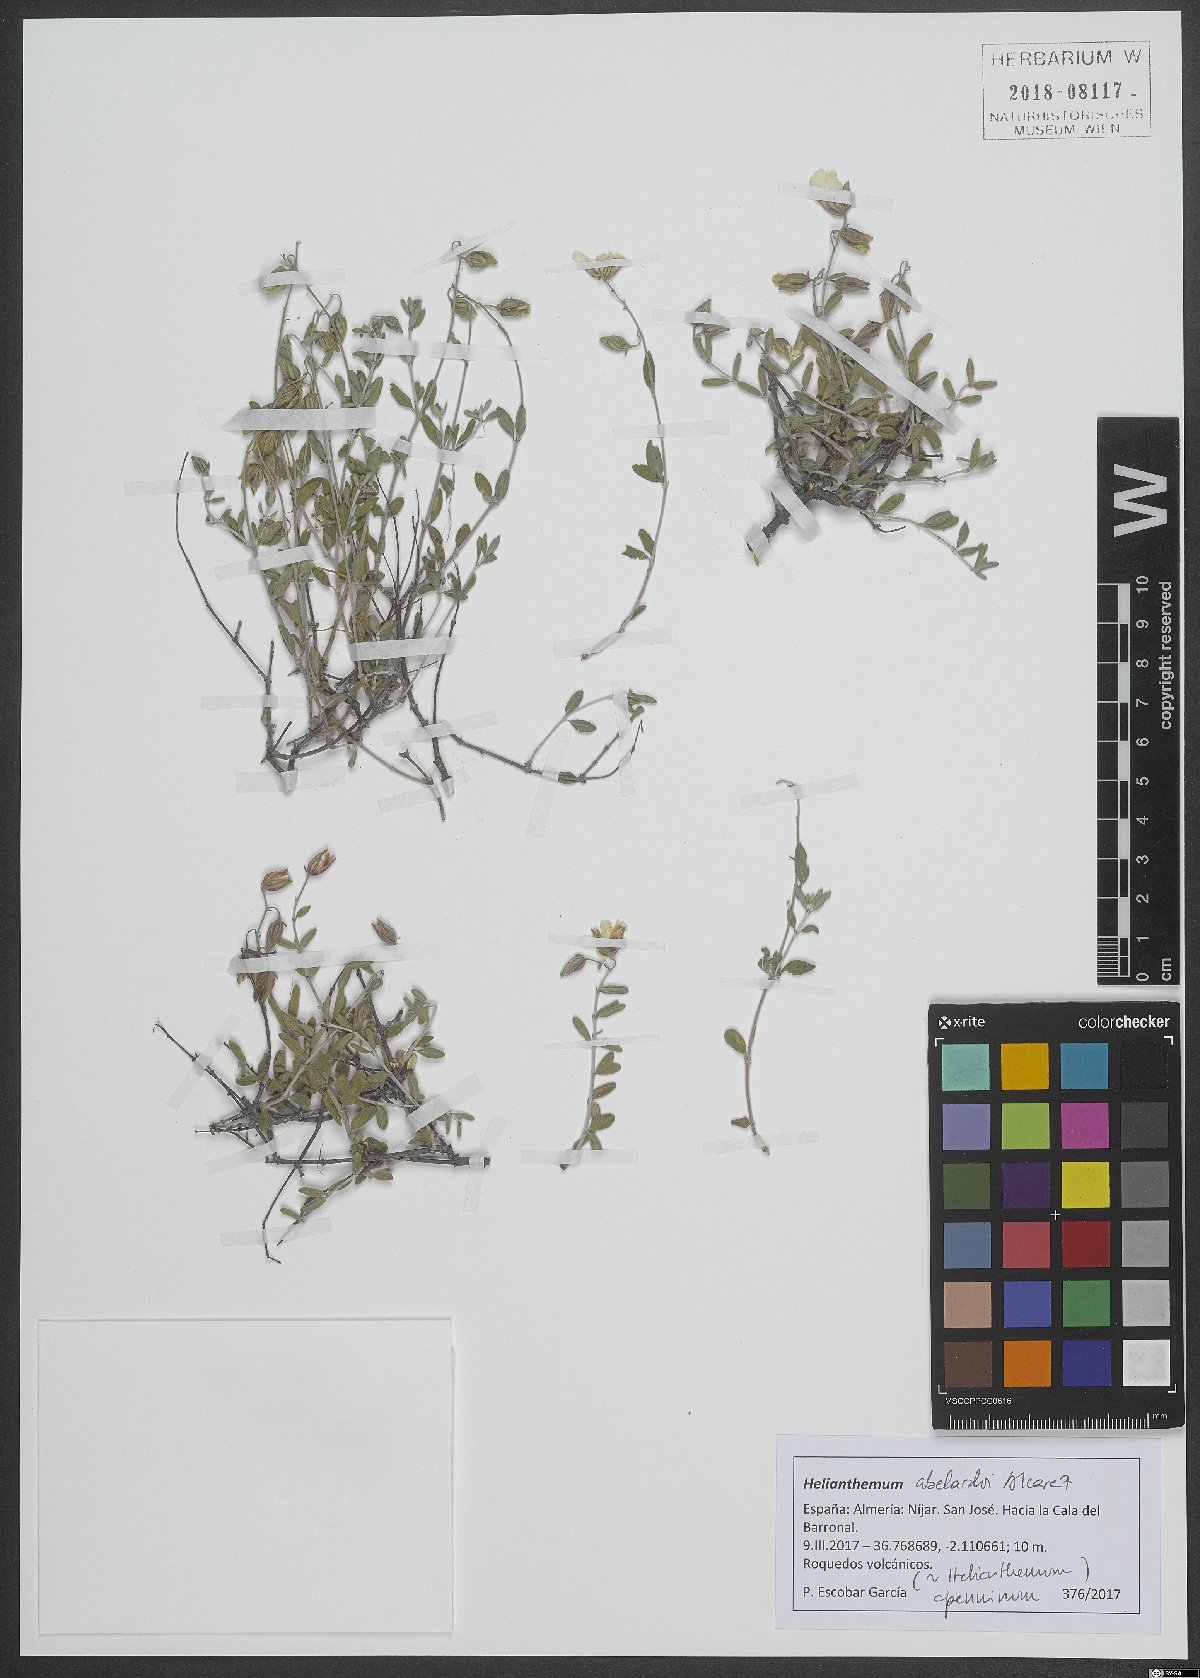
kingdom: Plantae
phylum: Tracheophyta
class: Magnoliopsida
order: Malvales
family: Cistaceae
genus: Helianthemum
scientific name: Helianthemum abelardoi
